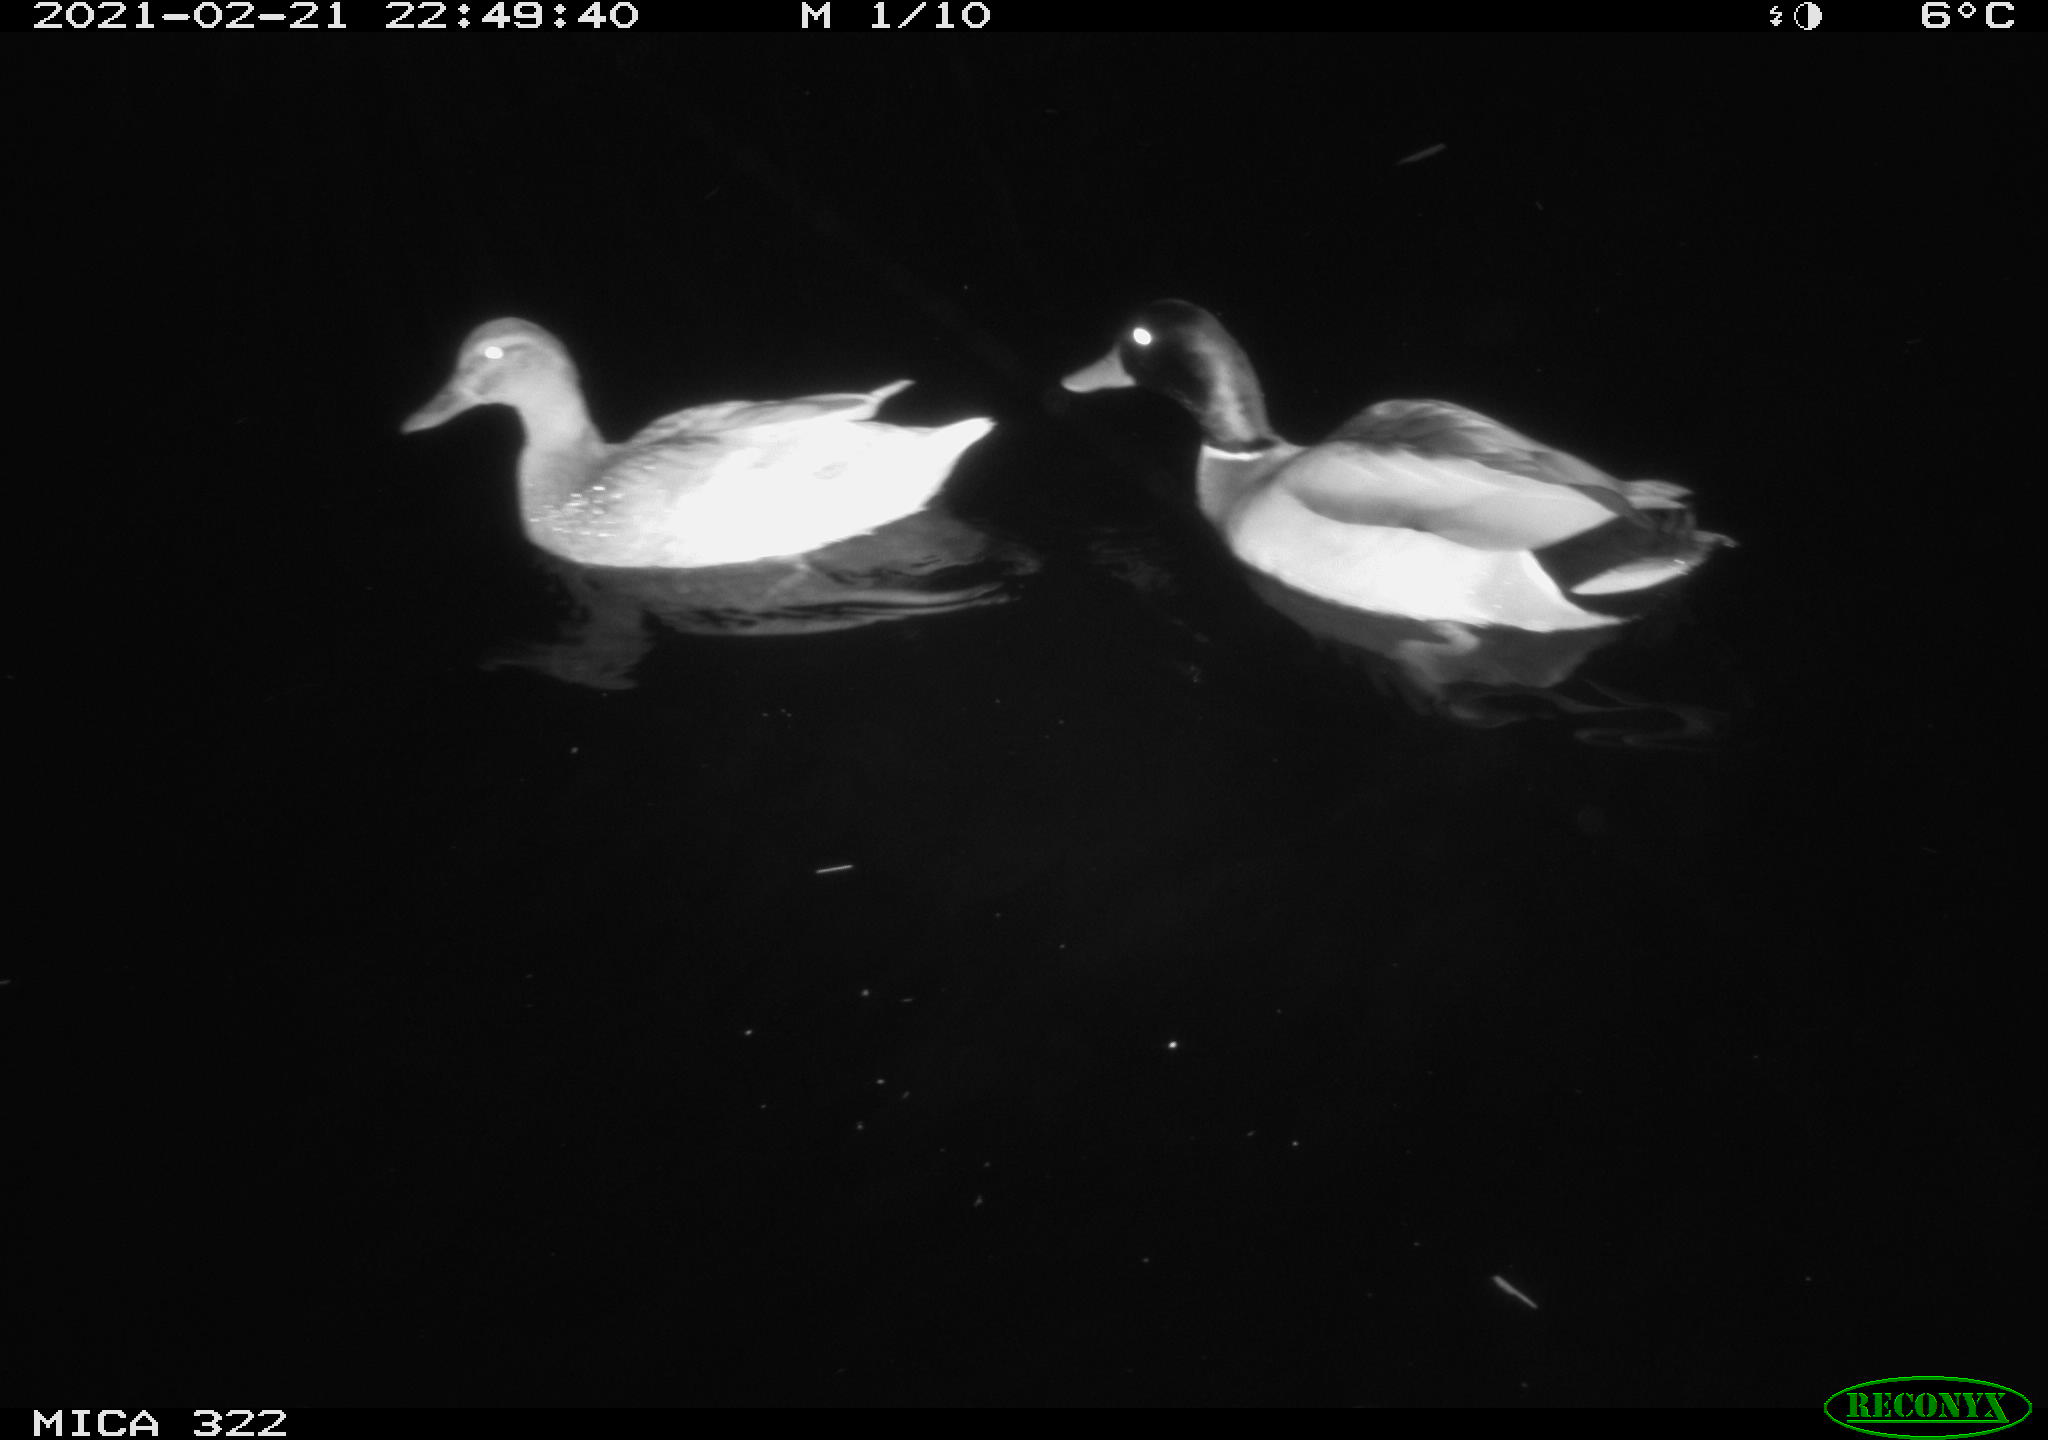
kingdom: Animalia
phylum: Chordata
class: Aves
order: Anseriformes
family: Anatidae
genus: Mareca
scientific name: Mareca strepera
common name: Gadwall
